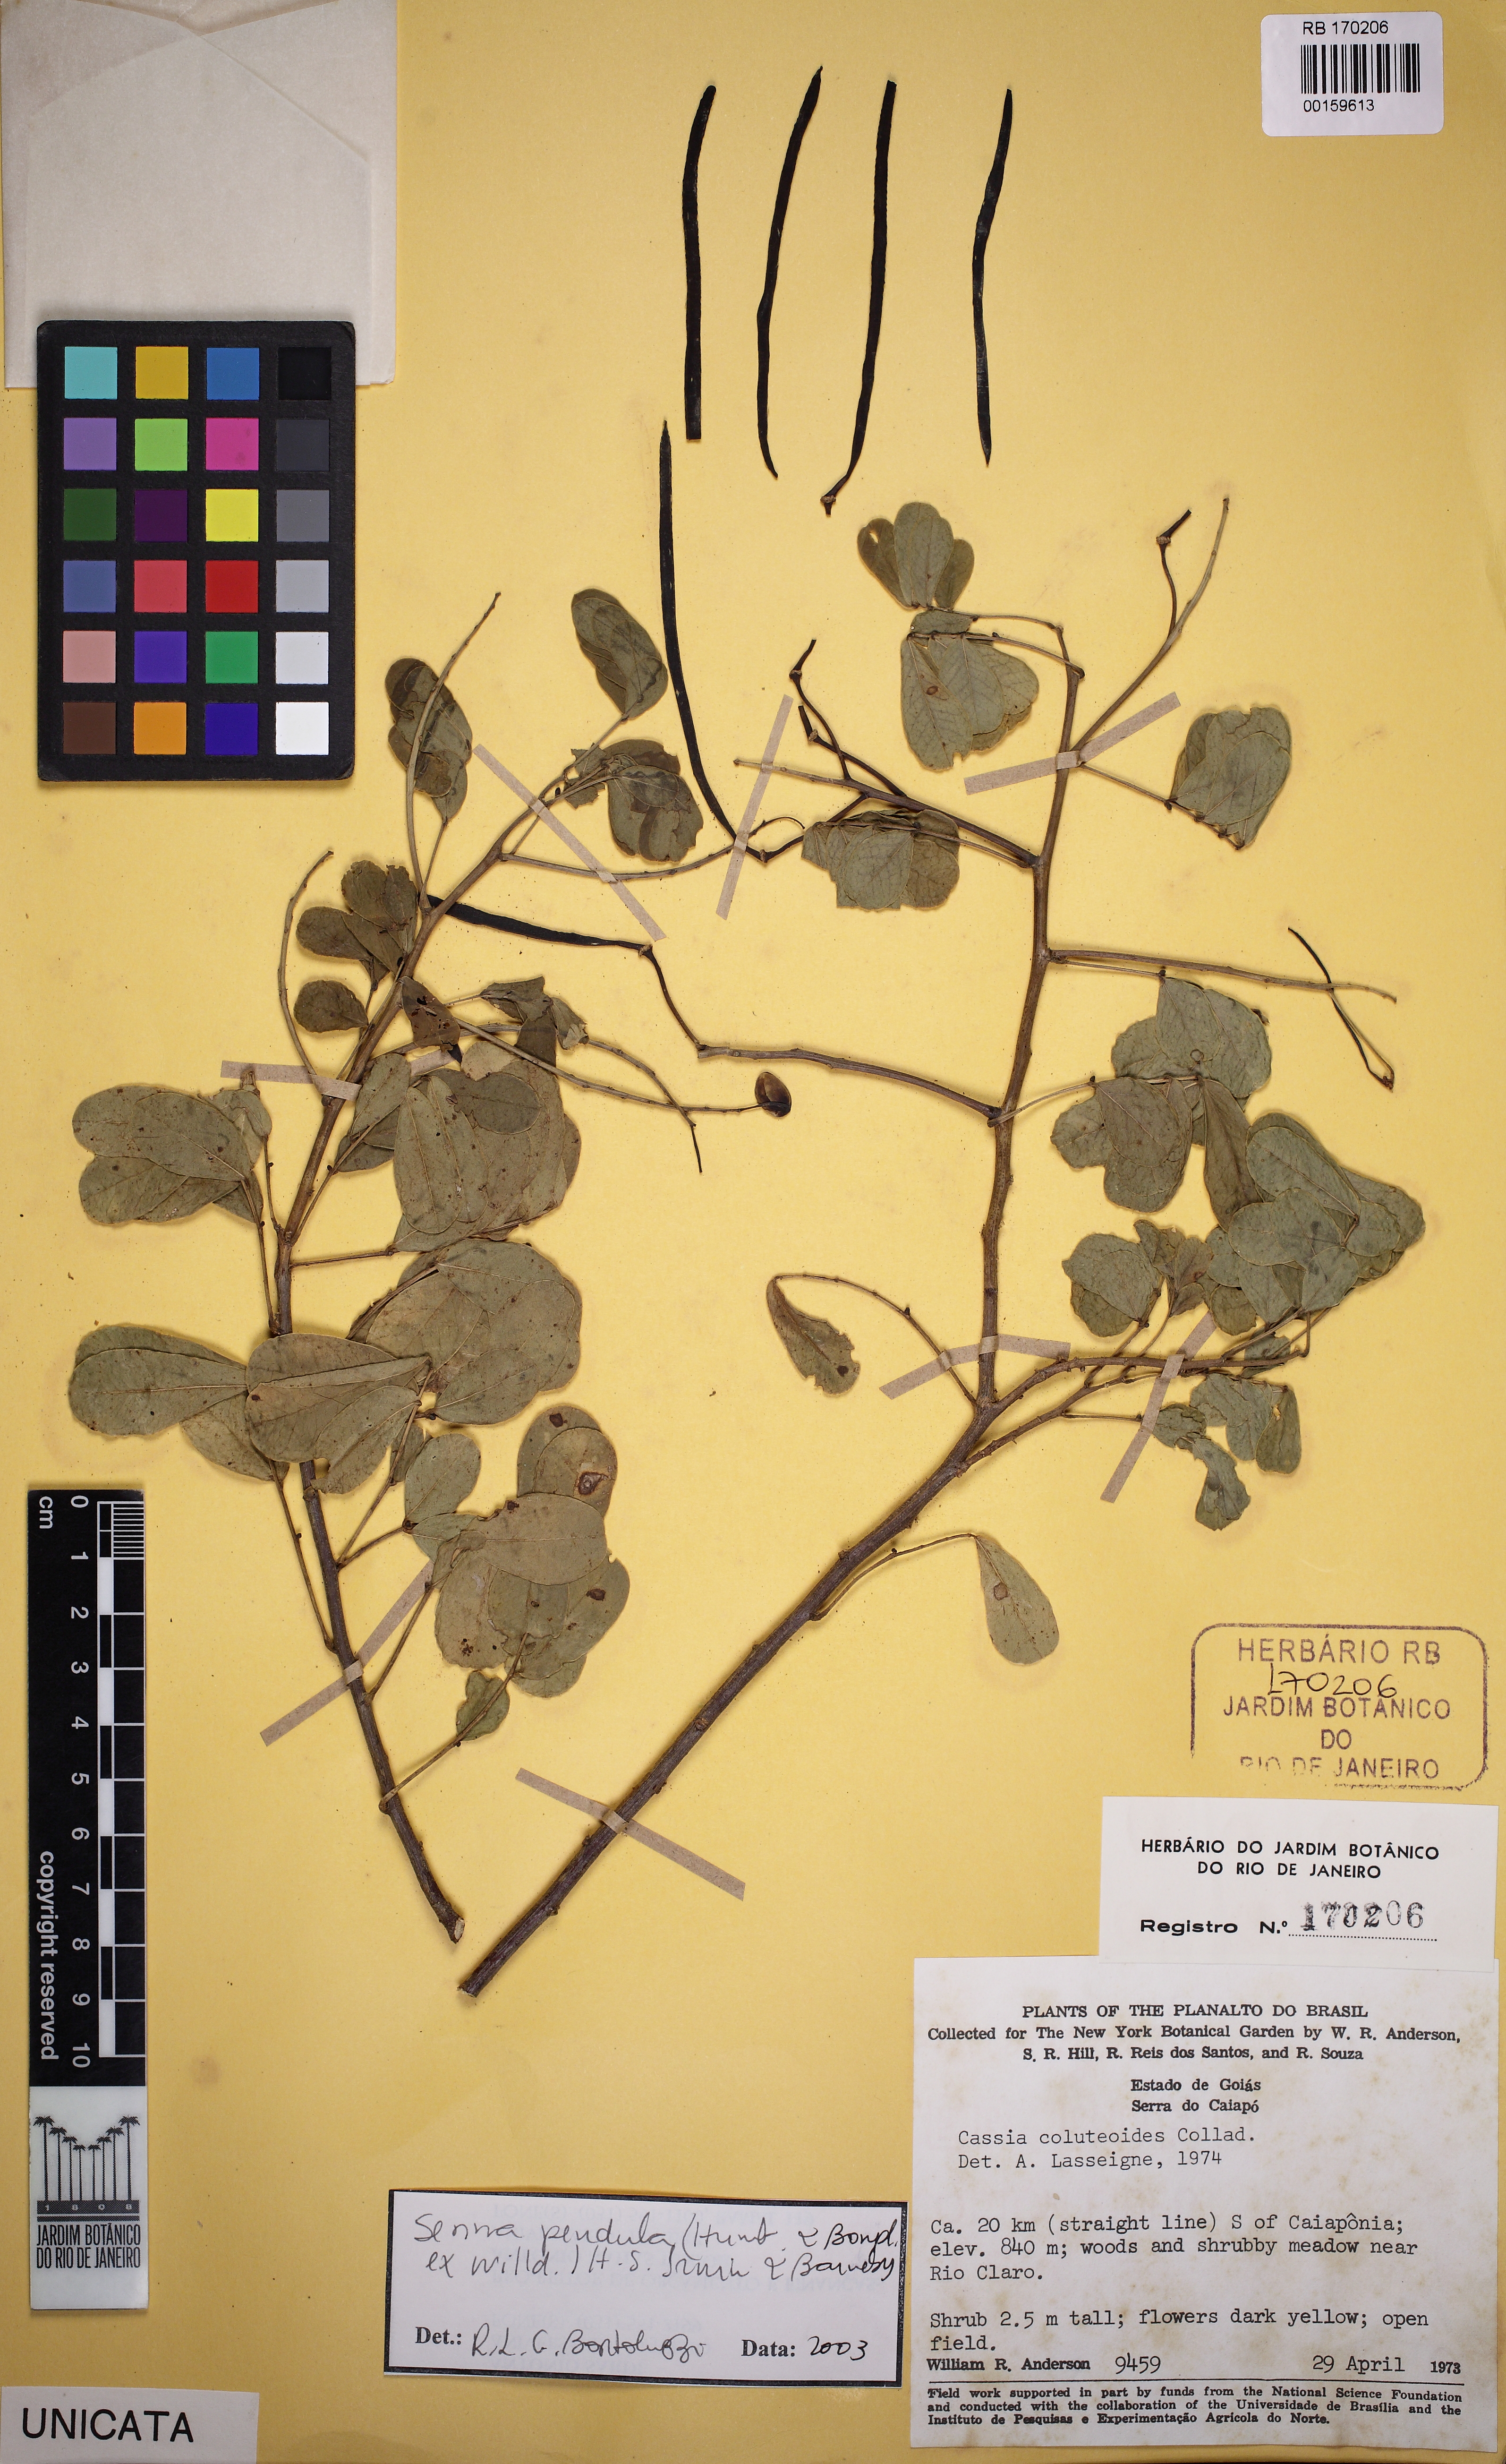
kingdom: Plantae
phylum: Tracheophyta
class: Magnoliopsida
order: Fabales
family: Fabaceae
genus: Senna
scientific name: Senna pendula
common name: Easter cassia
